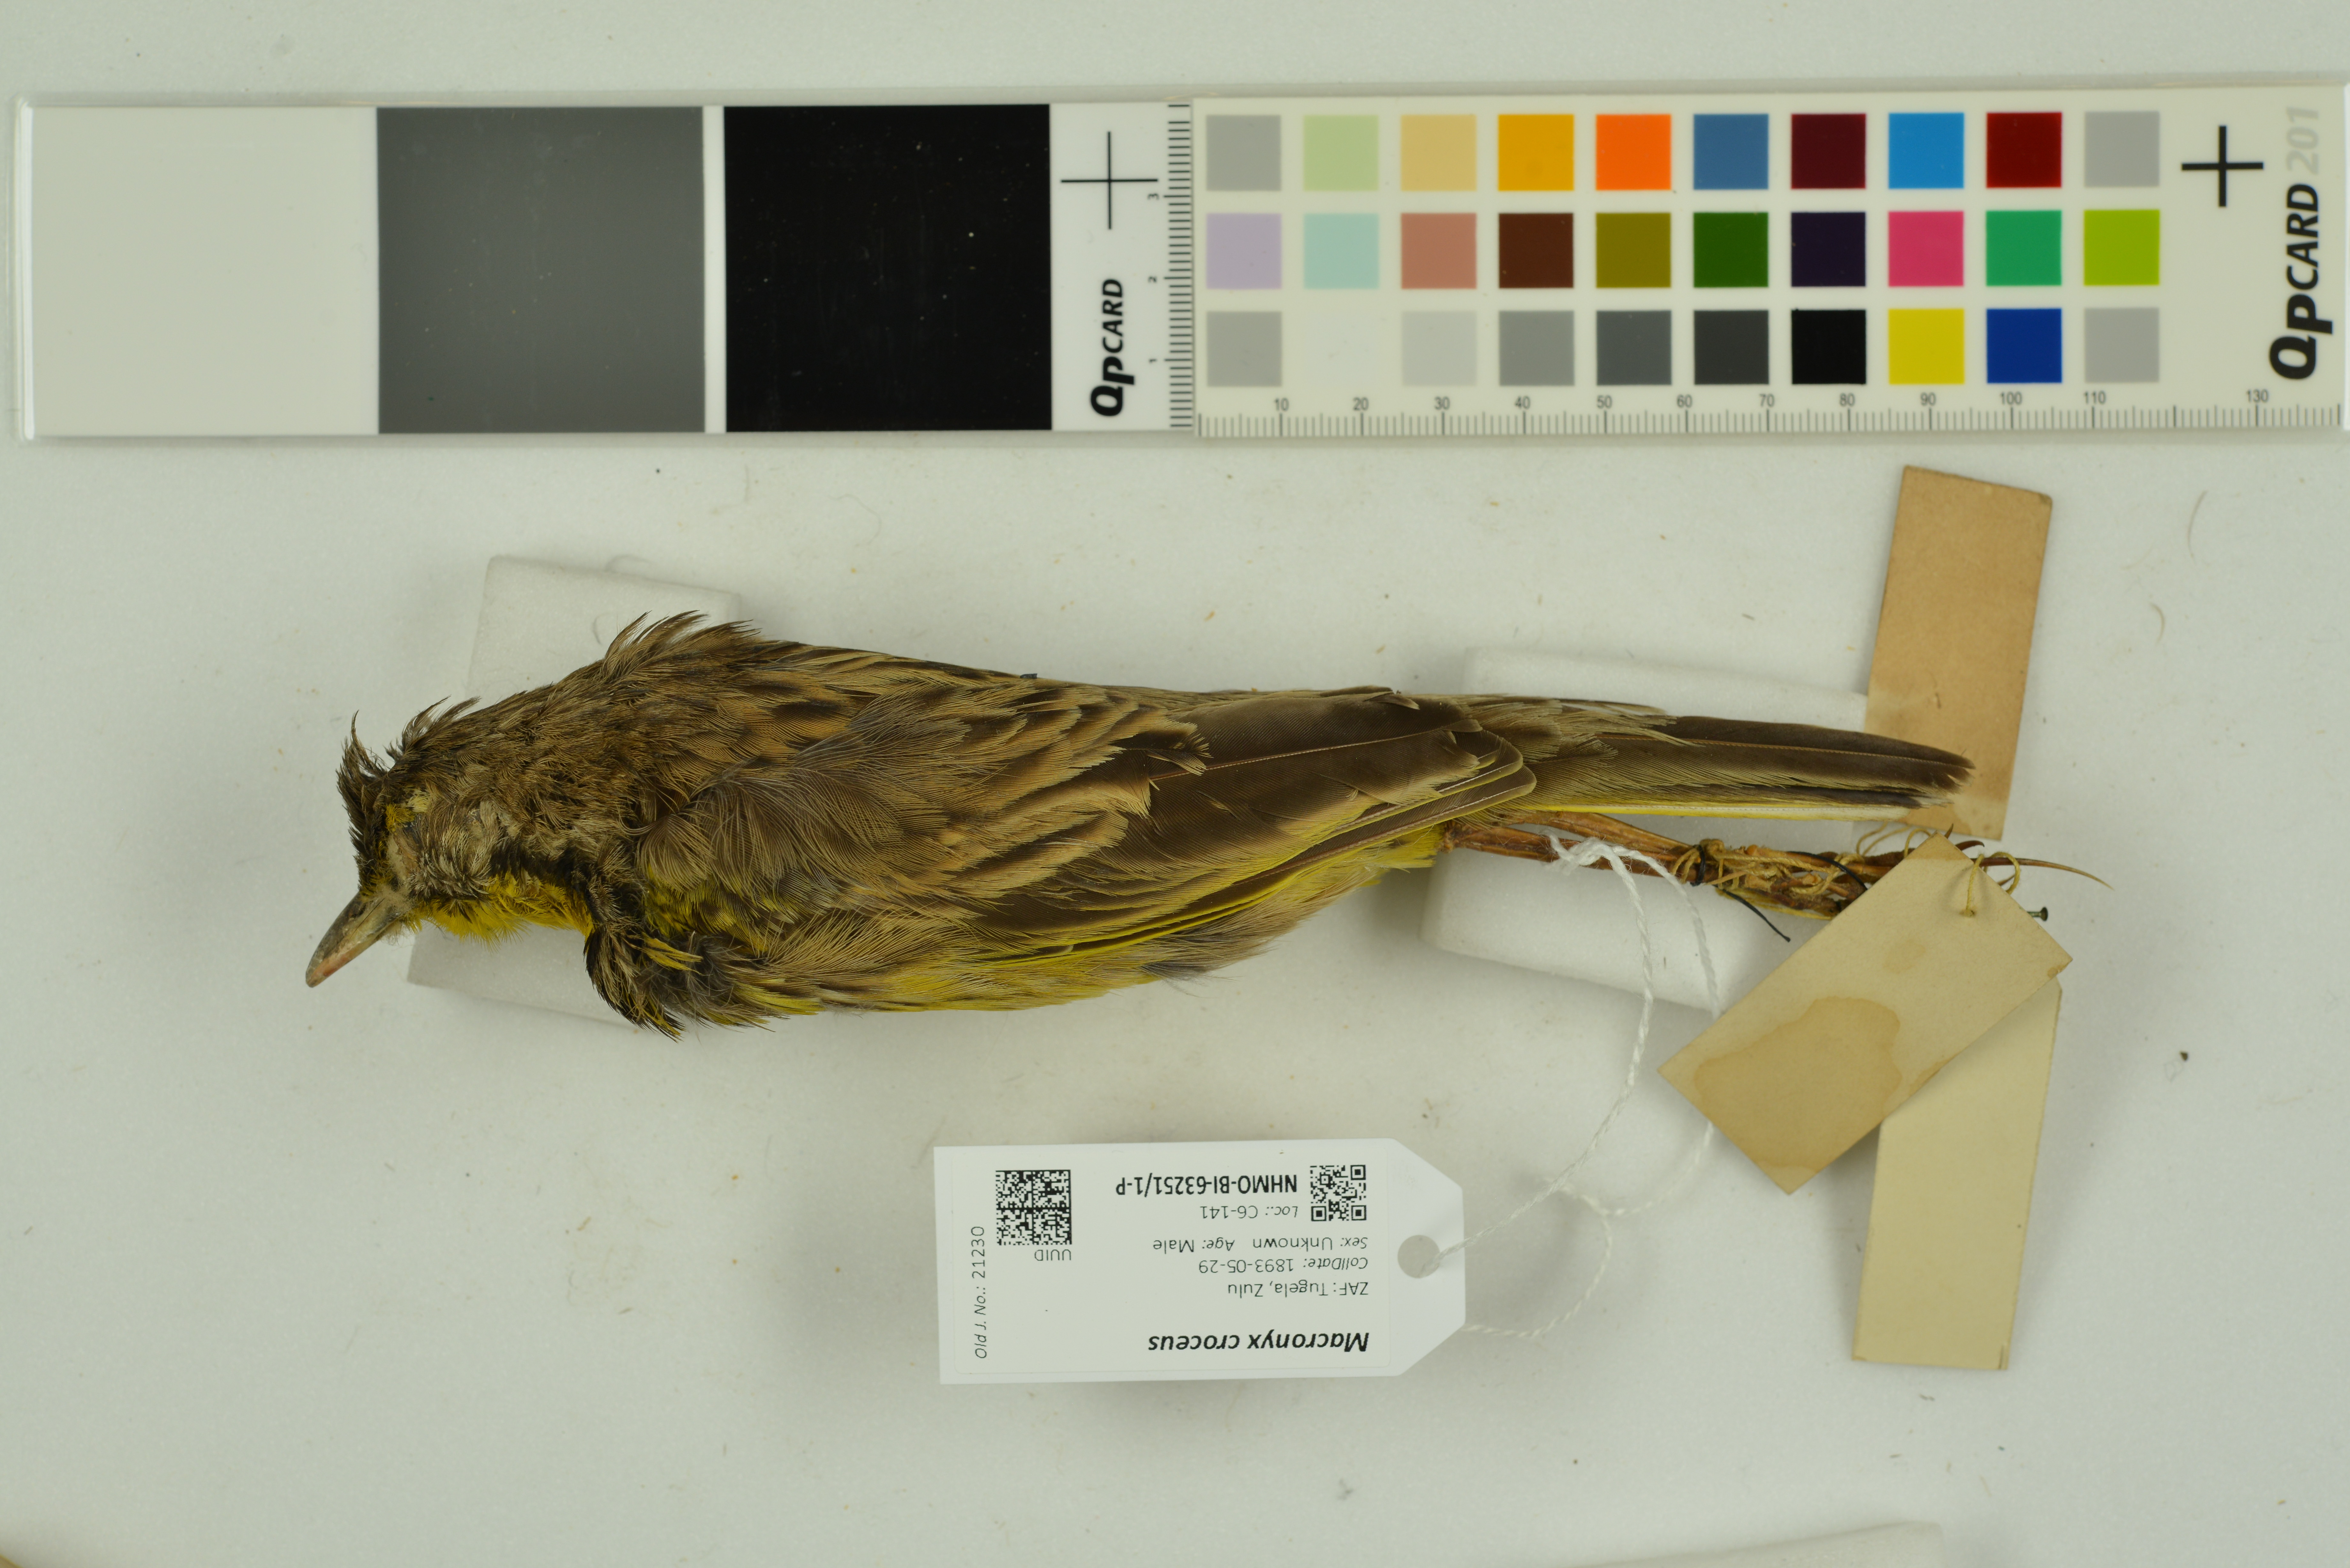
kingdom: Animalia
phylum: Chordata
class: Aves
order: Passeriformes
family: Motacillidae
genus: Macronyx
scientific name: Macronyx croceus
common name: Yellow-throated longclaw
